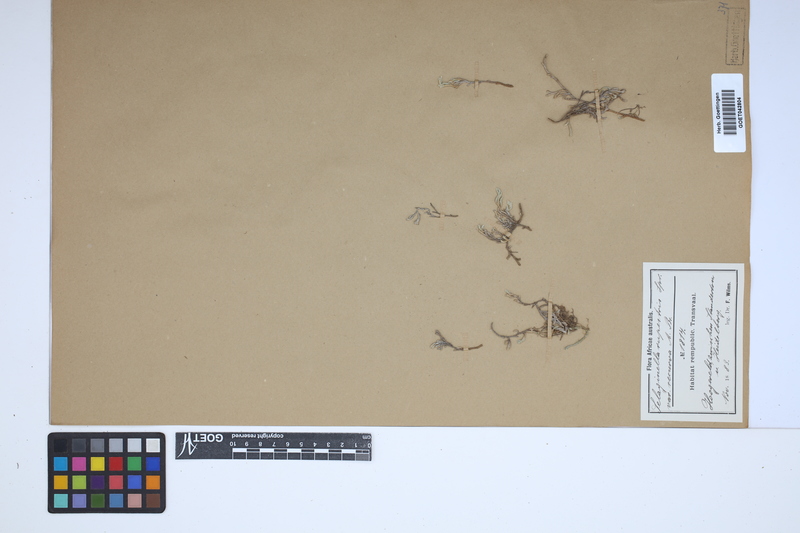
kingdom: Plantae
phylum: Tracheophyta
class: Lycopodiopsida
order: Selaginellales
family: Selaginellaceae
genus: Selaginella
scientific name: Selaginella rupestris
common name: Dwarf spikemoss
